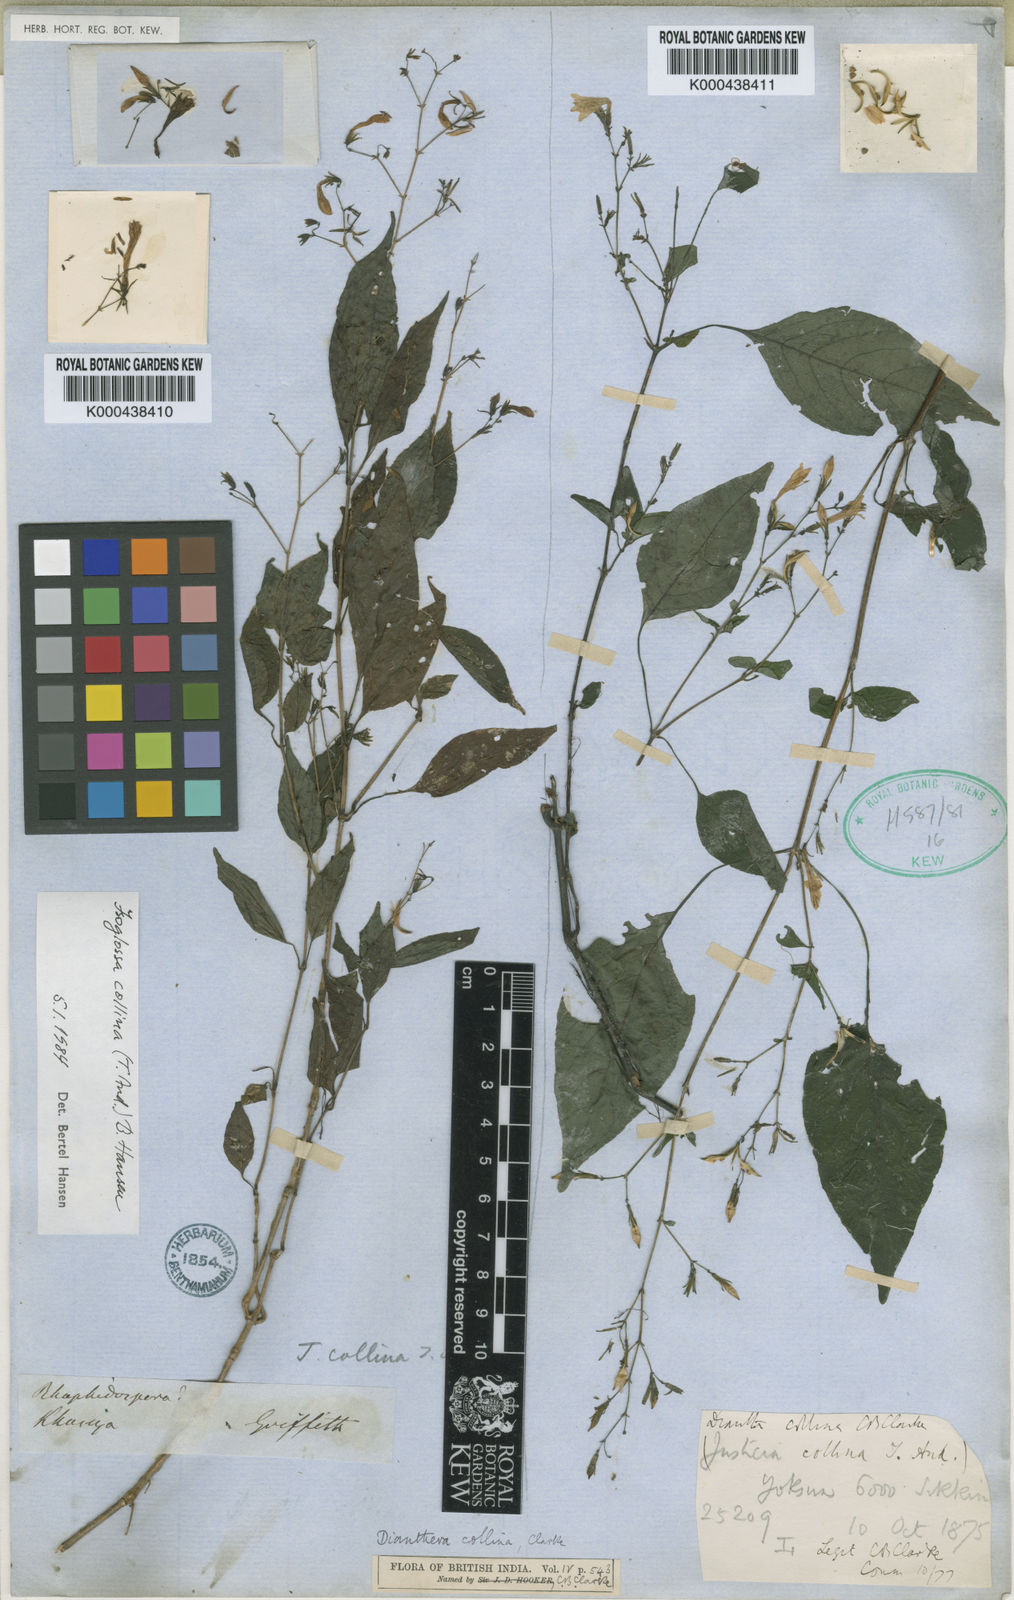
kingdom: Plantae
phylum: Tracheophyta
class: Magnoliopsida
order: Lamiales
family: Acanthaceae
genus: Isoglossa
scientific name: Isoglossa collina
